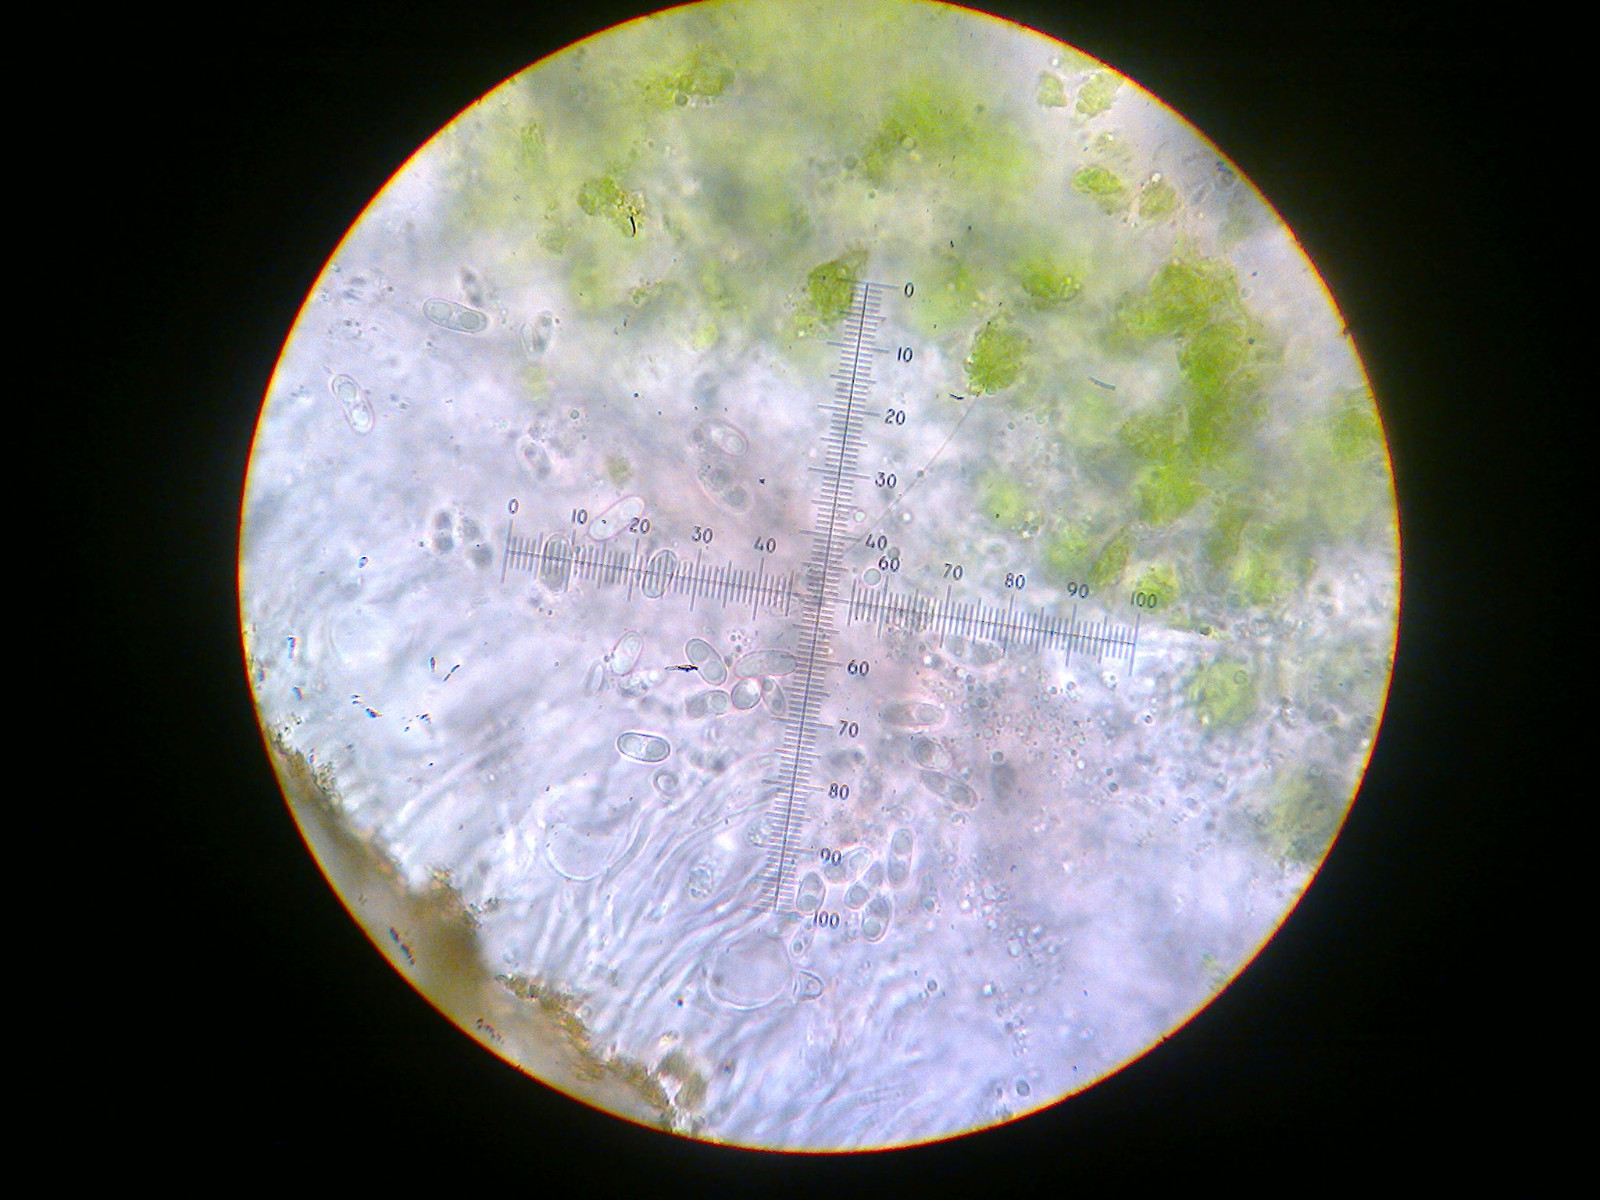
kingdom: Fungi
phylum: Ascomycota
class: Candelariomycetes
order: Candelariales
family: Candelariaceae
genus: Candelariella
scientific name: Candelariella vitellina
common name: almindelig æggeblommelav
